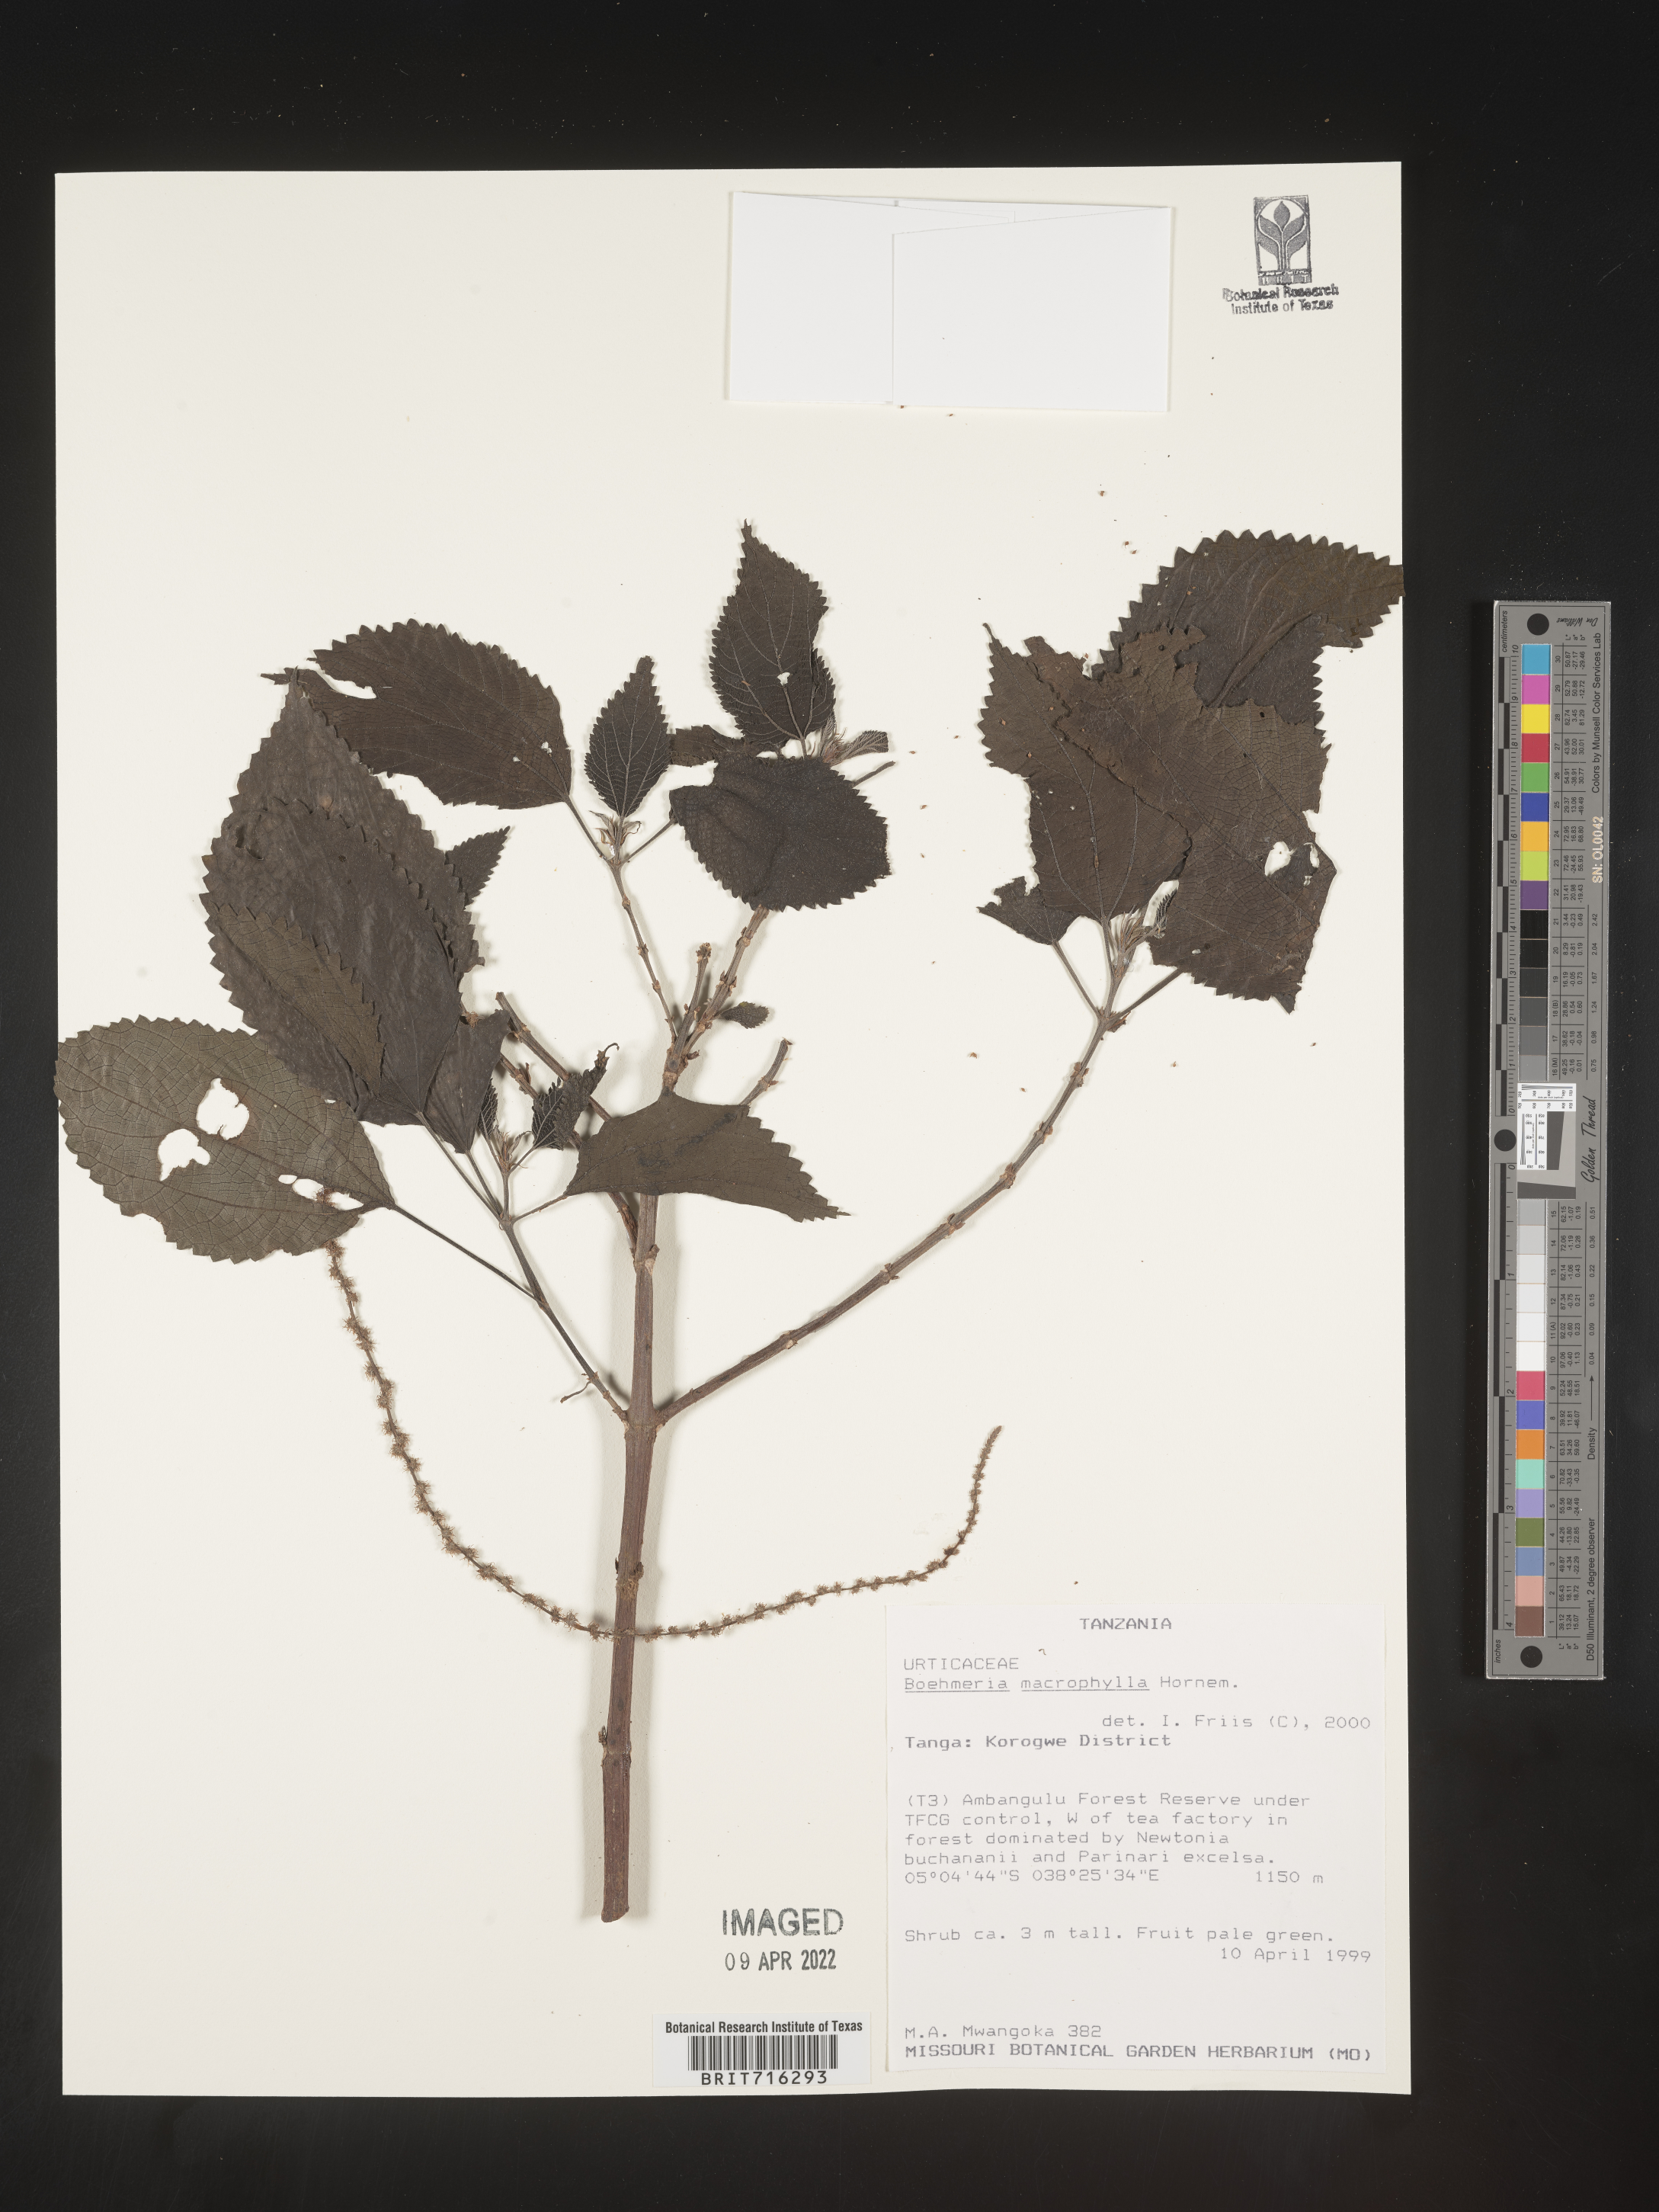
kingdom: Plantae
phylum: Tracheophyta
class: Magnoliopsida
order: Rosales
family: Urticaceae
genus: Boehmeria
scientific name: Boehmeria
